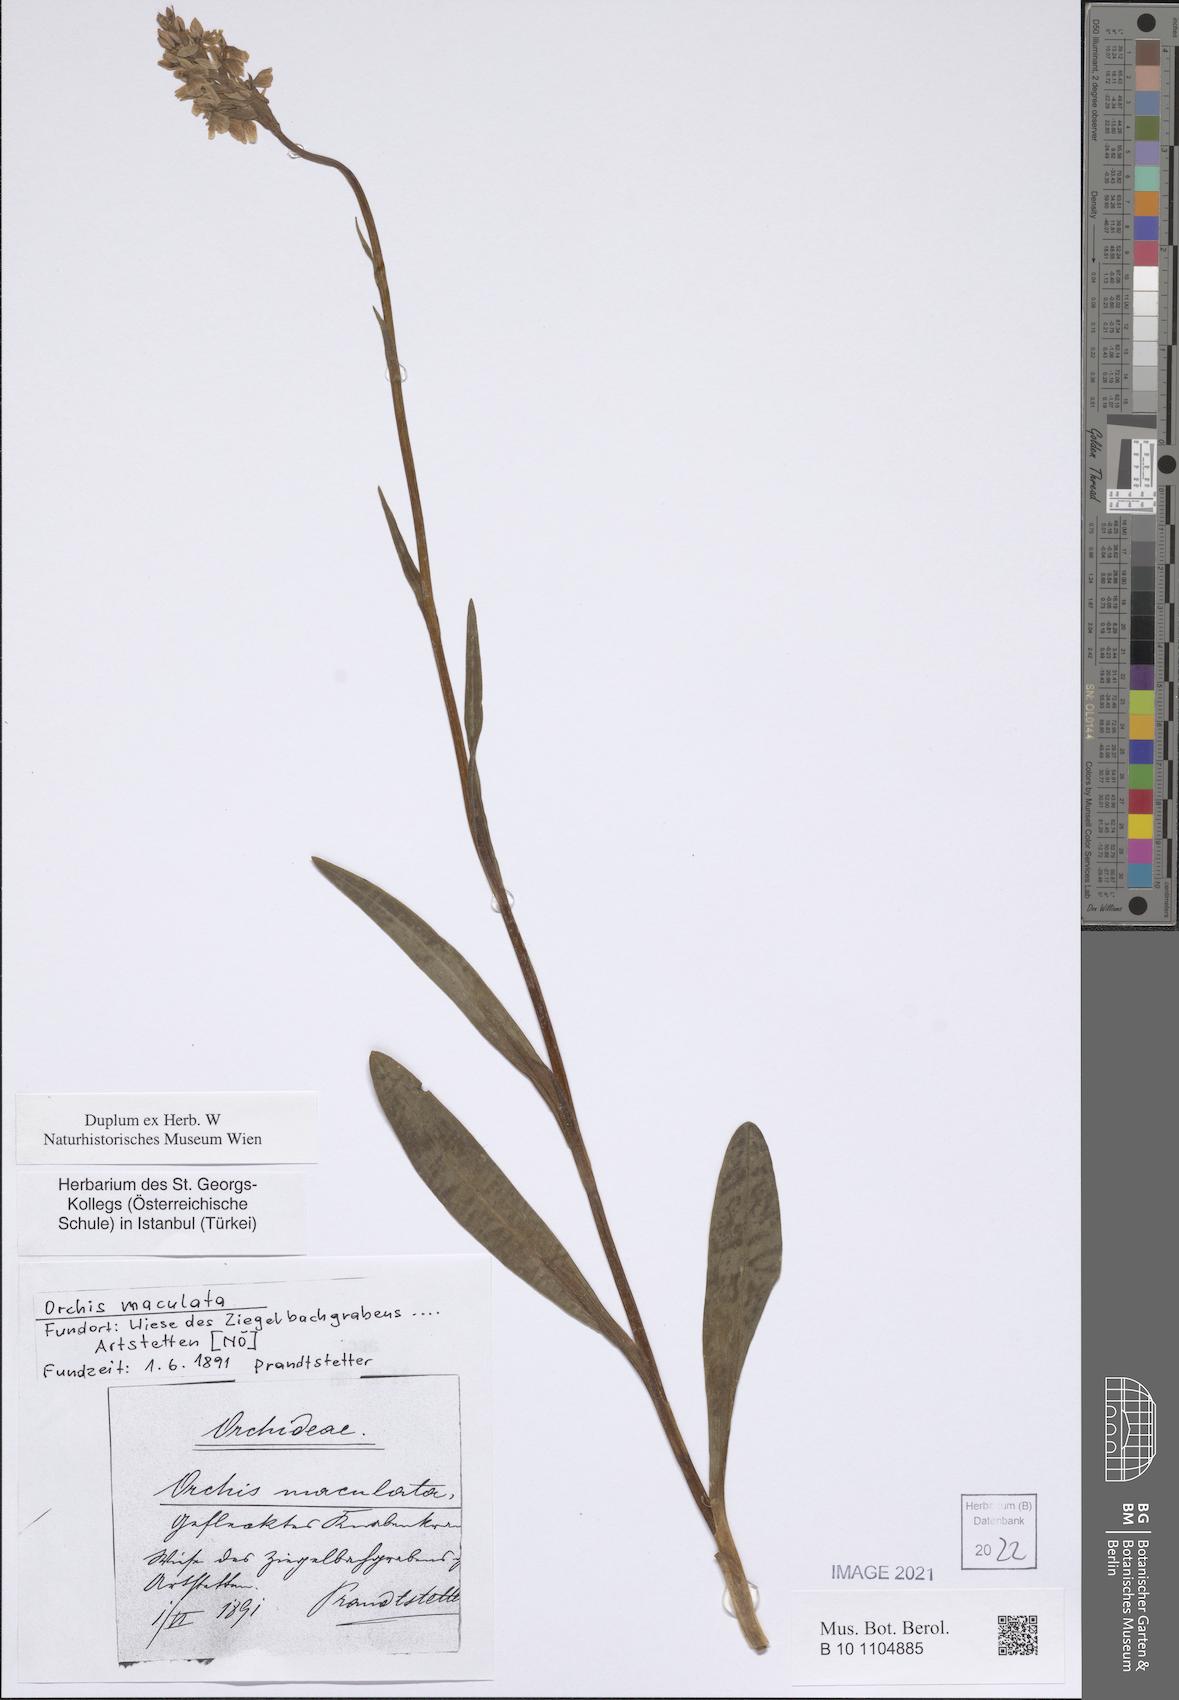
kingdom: Plantae
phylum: Tracheophyta
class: Liliopsida
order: Asparagales
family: Orchidaceae
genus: Dactylorhiza
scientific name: Dactylorhiza maculata
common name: Heath spotted-orchid
